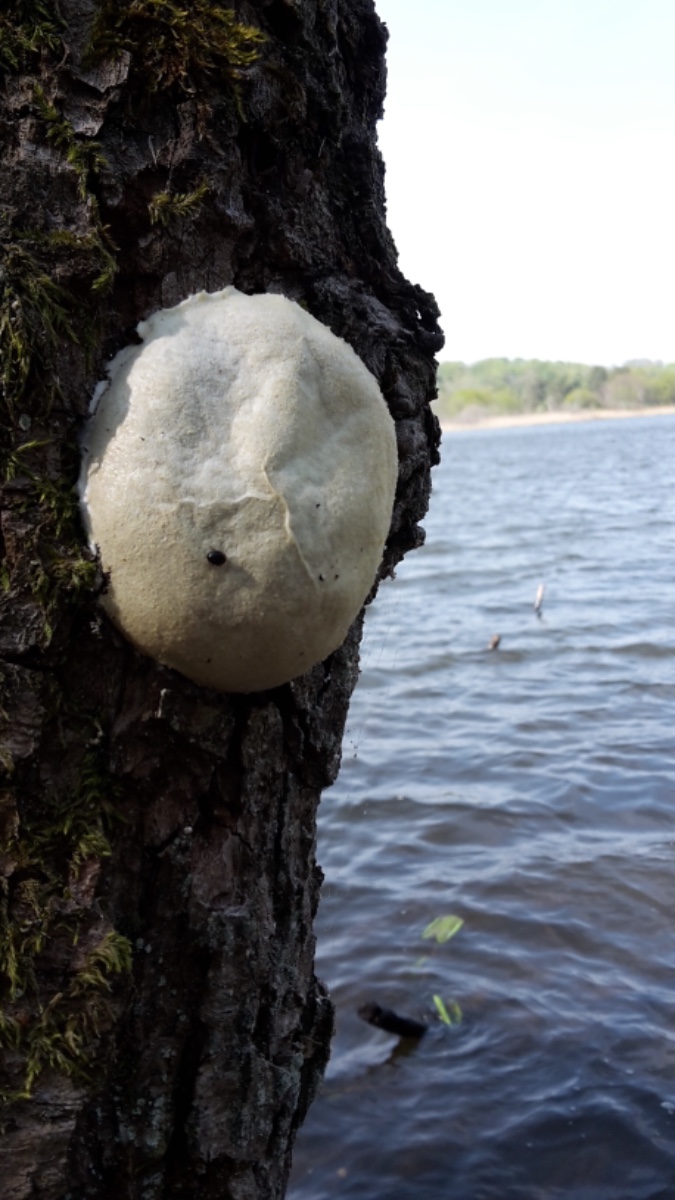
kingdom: Protozoa
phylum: Mycetozoa
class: Myxomycetes
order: Cribrariales
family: Tubiferaceae
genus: Reticularia
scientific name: Reticularia lycoperdon
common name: skinnende støvpude
